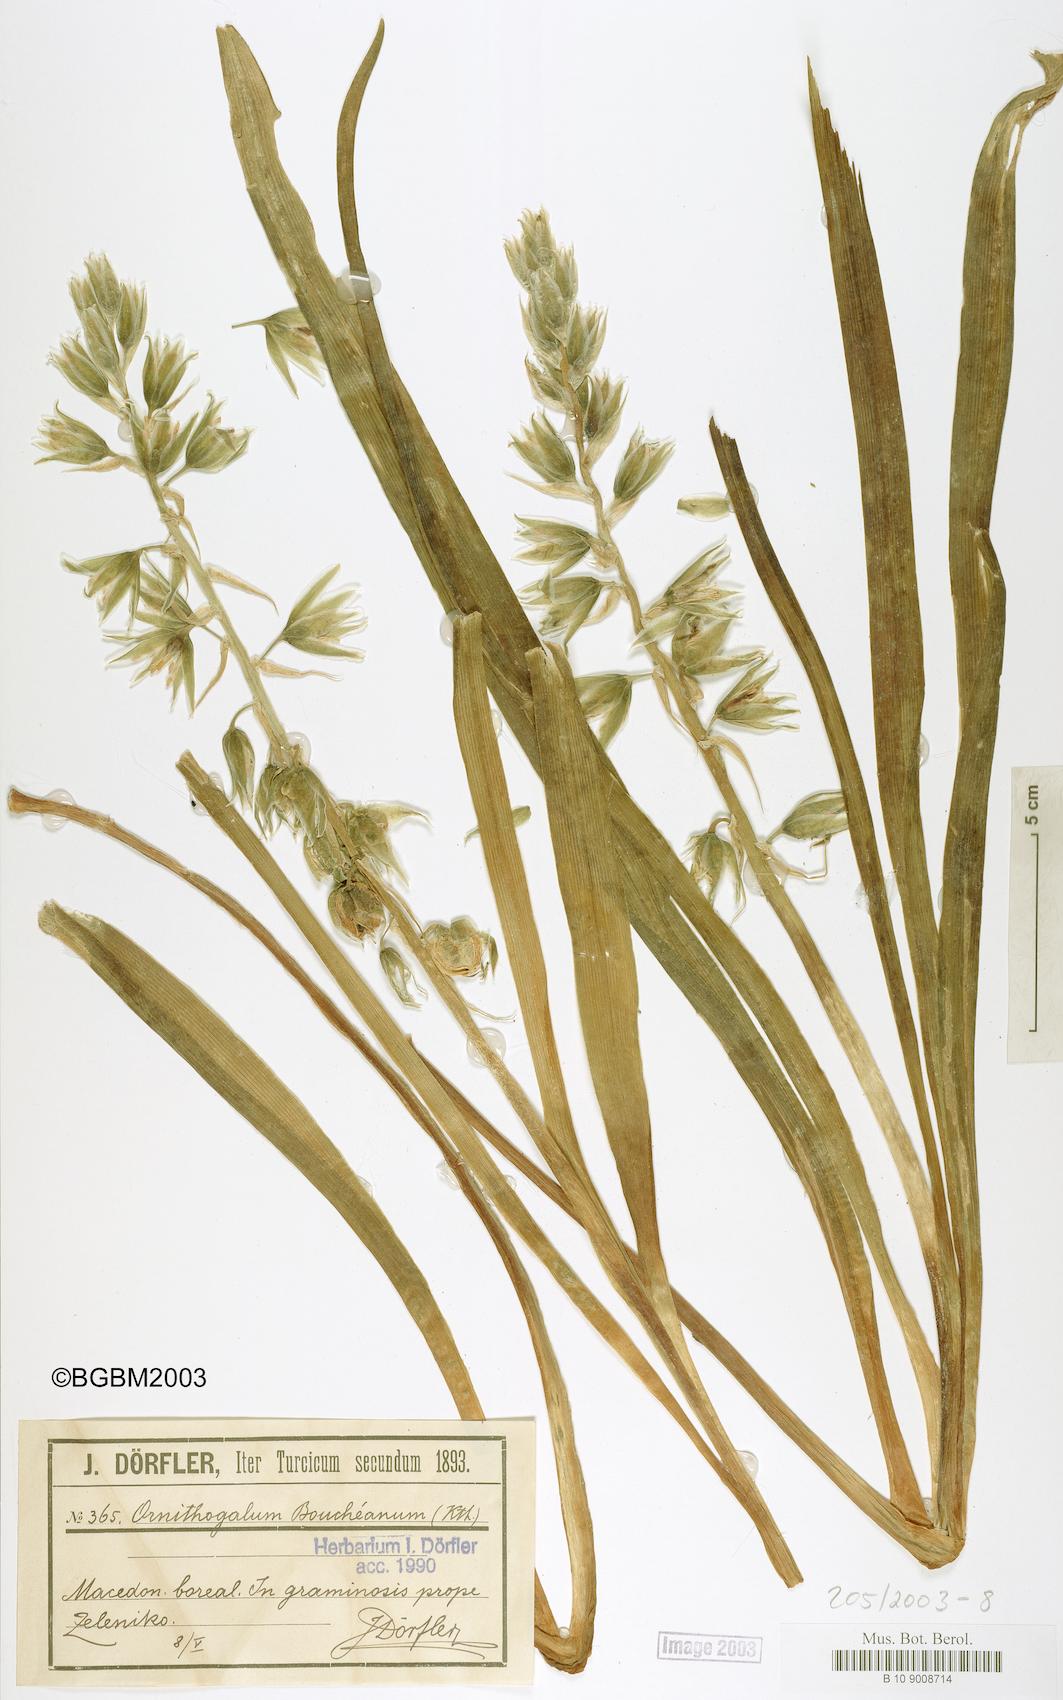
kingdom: Plantae
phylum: Tracheophyta
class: Liliopsida
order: Asparagales
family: Asparagaceae
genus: Ornithogalum
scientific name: Ornithogalum boucheanum
